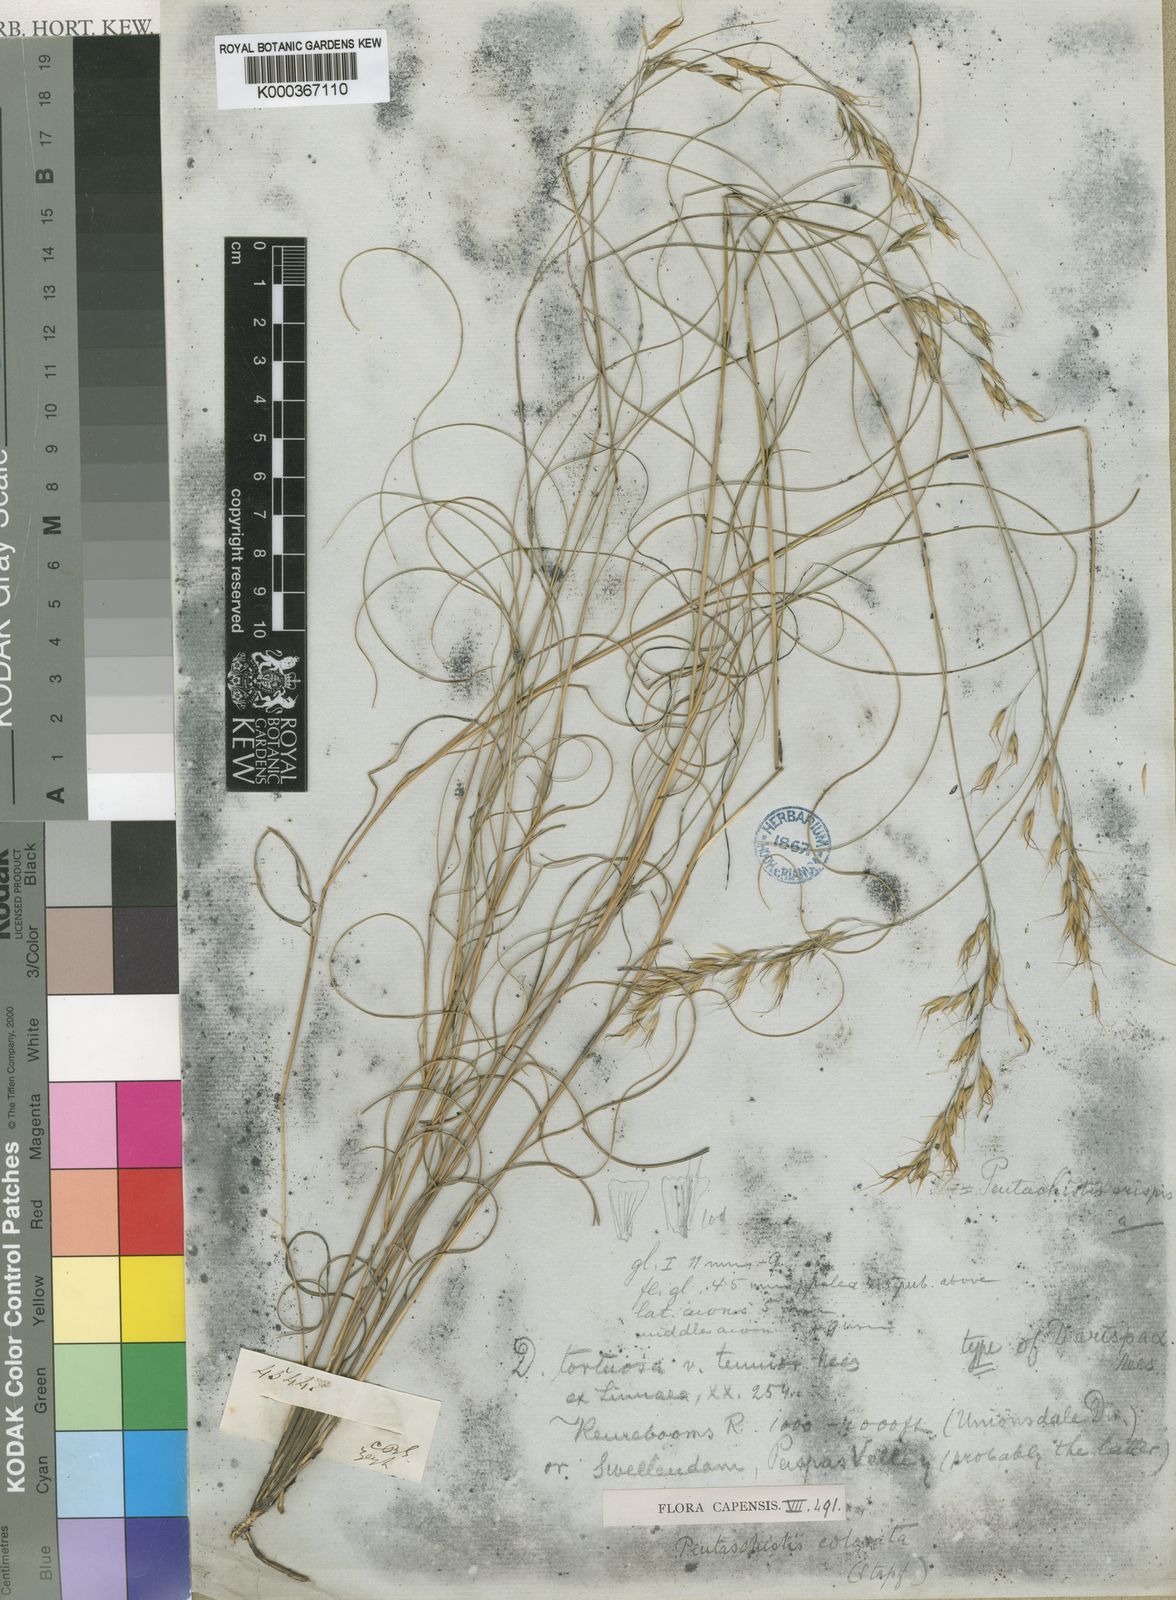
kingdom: Plantae
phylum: Tracheophyta
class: Liliopsida
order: Poales
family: Poaceae
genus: Pentameris
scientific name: Pentameris colorata
